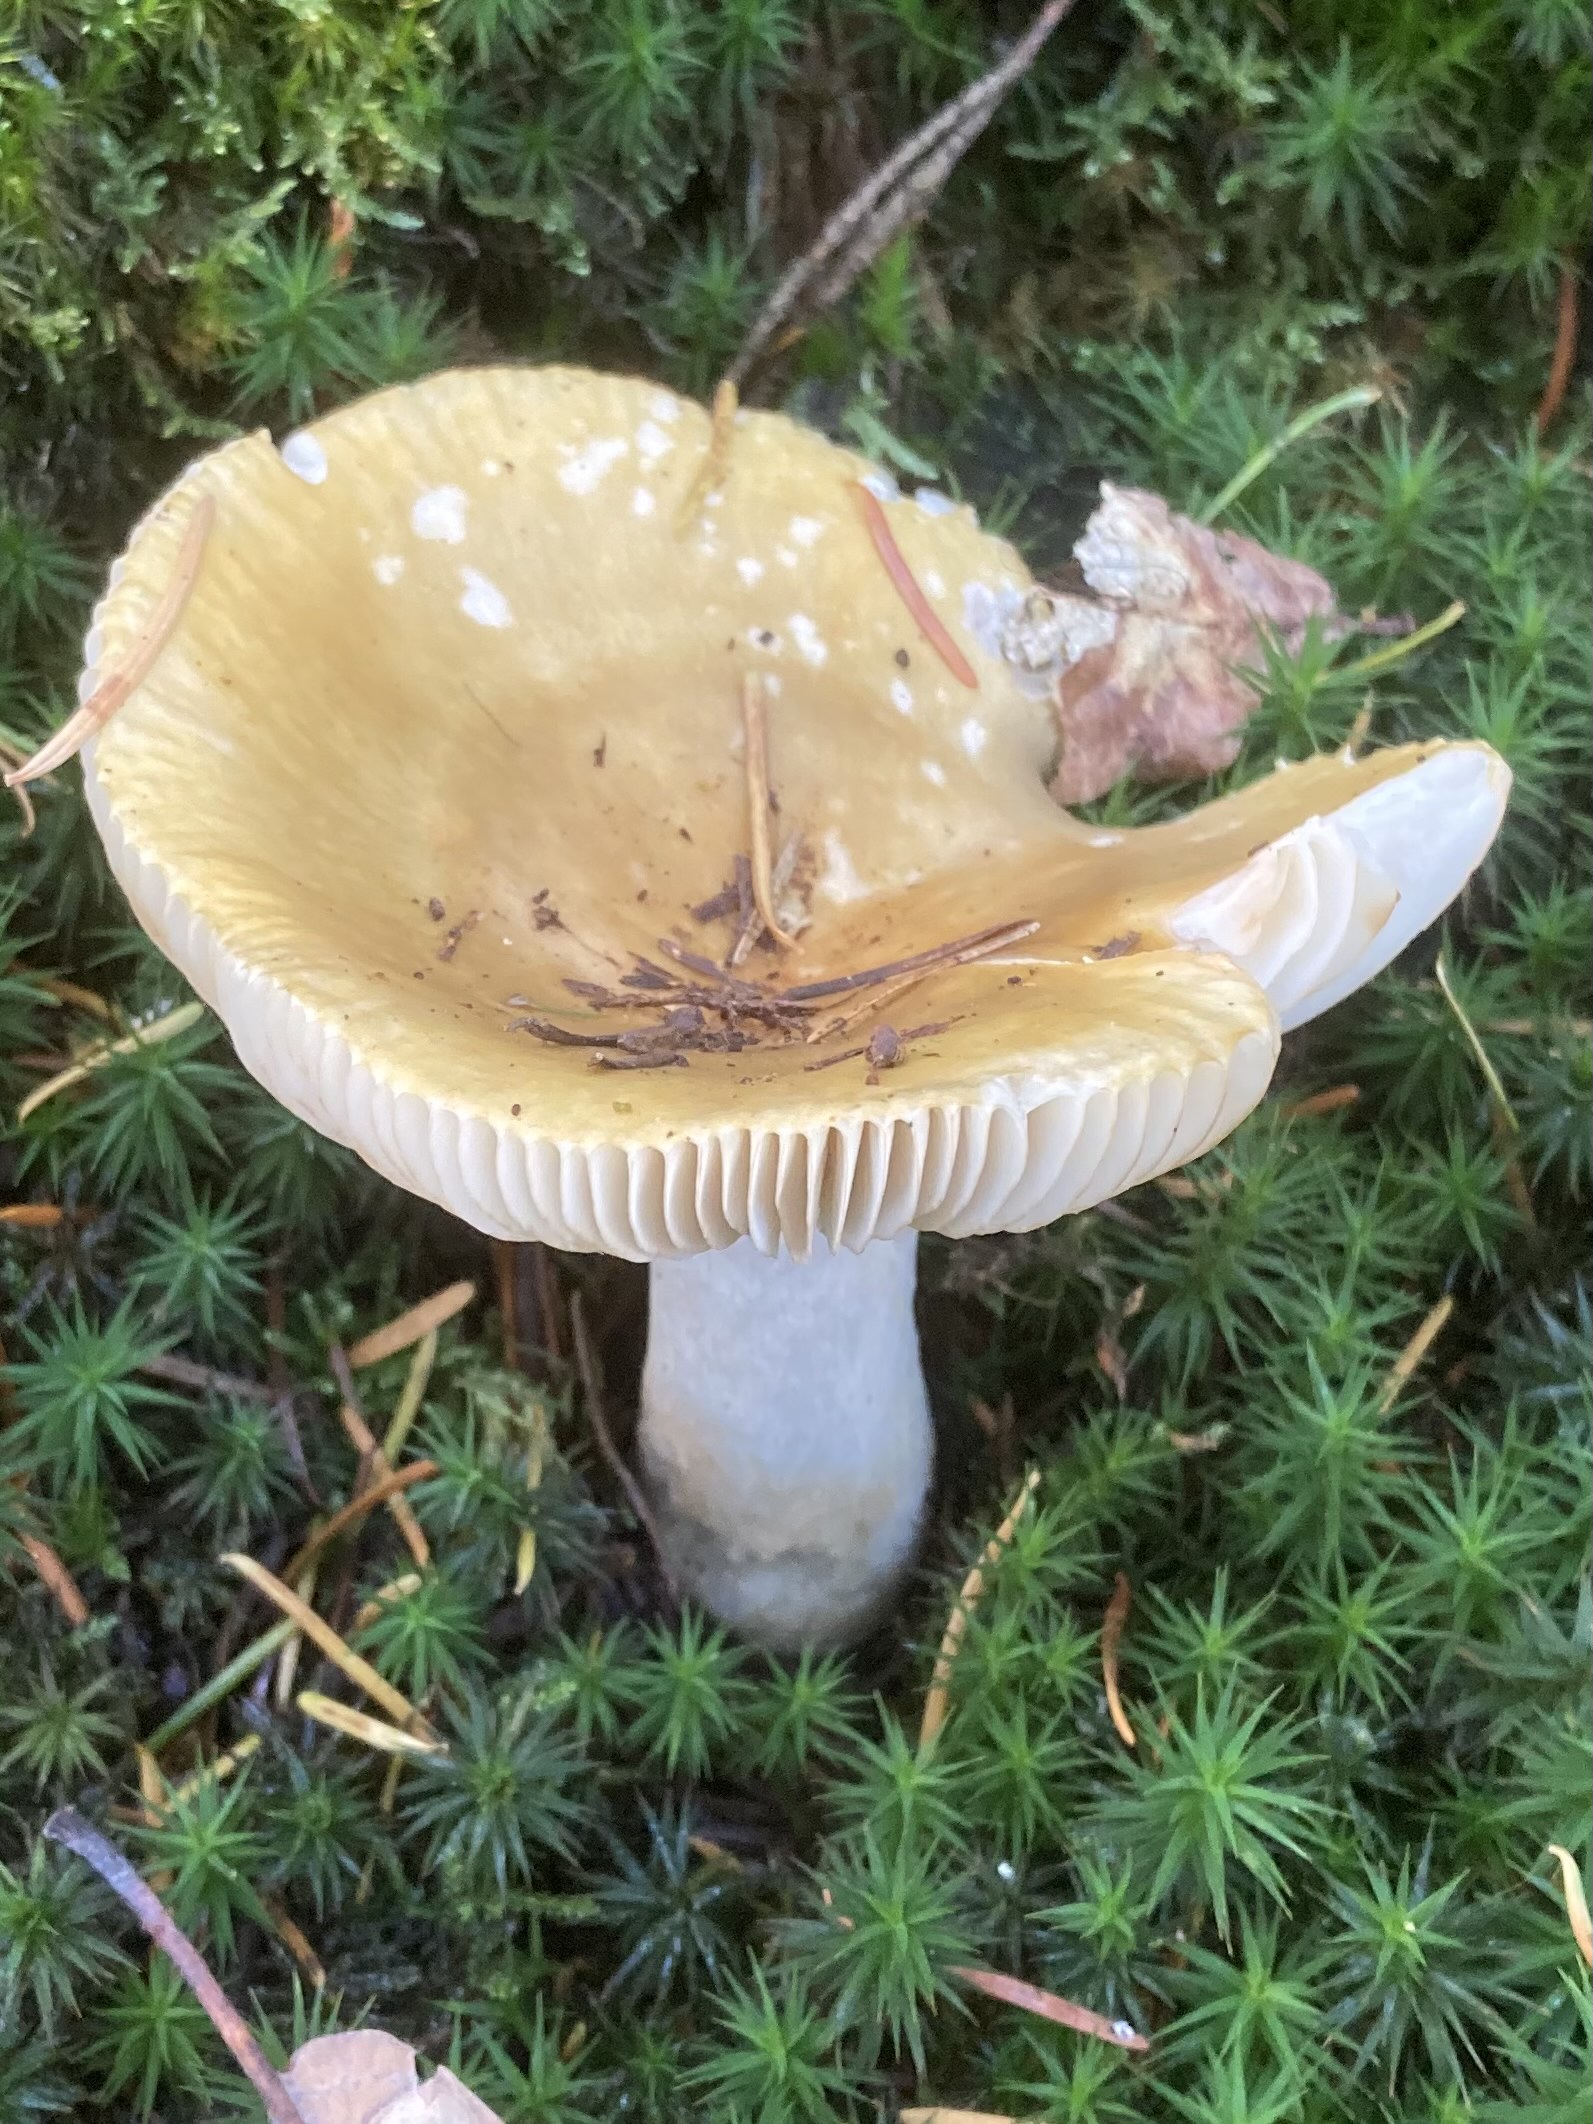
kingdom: Fungi
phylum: Basidiomycota
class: Agaricomycetes
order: Russulales
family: Russulaceae
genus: Russula
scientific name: Russula ochroleuca
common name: okkergul skørhat
